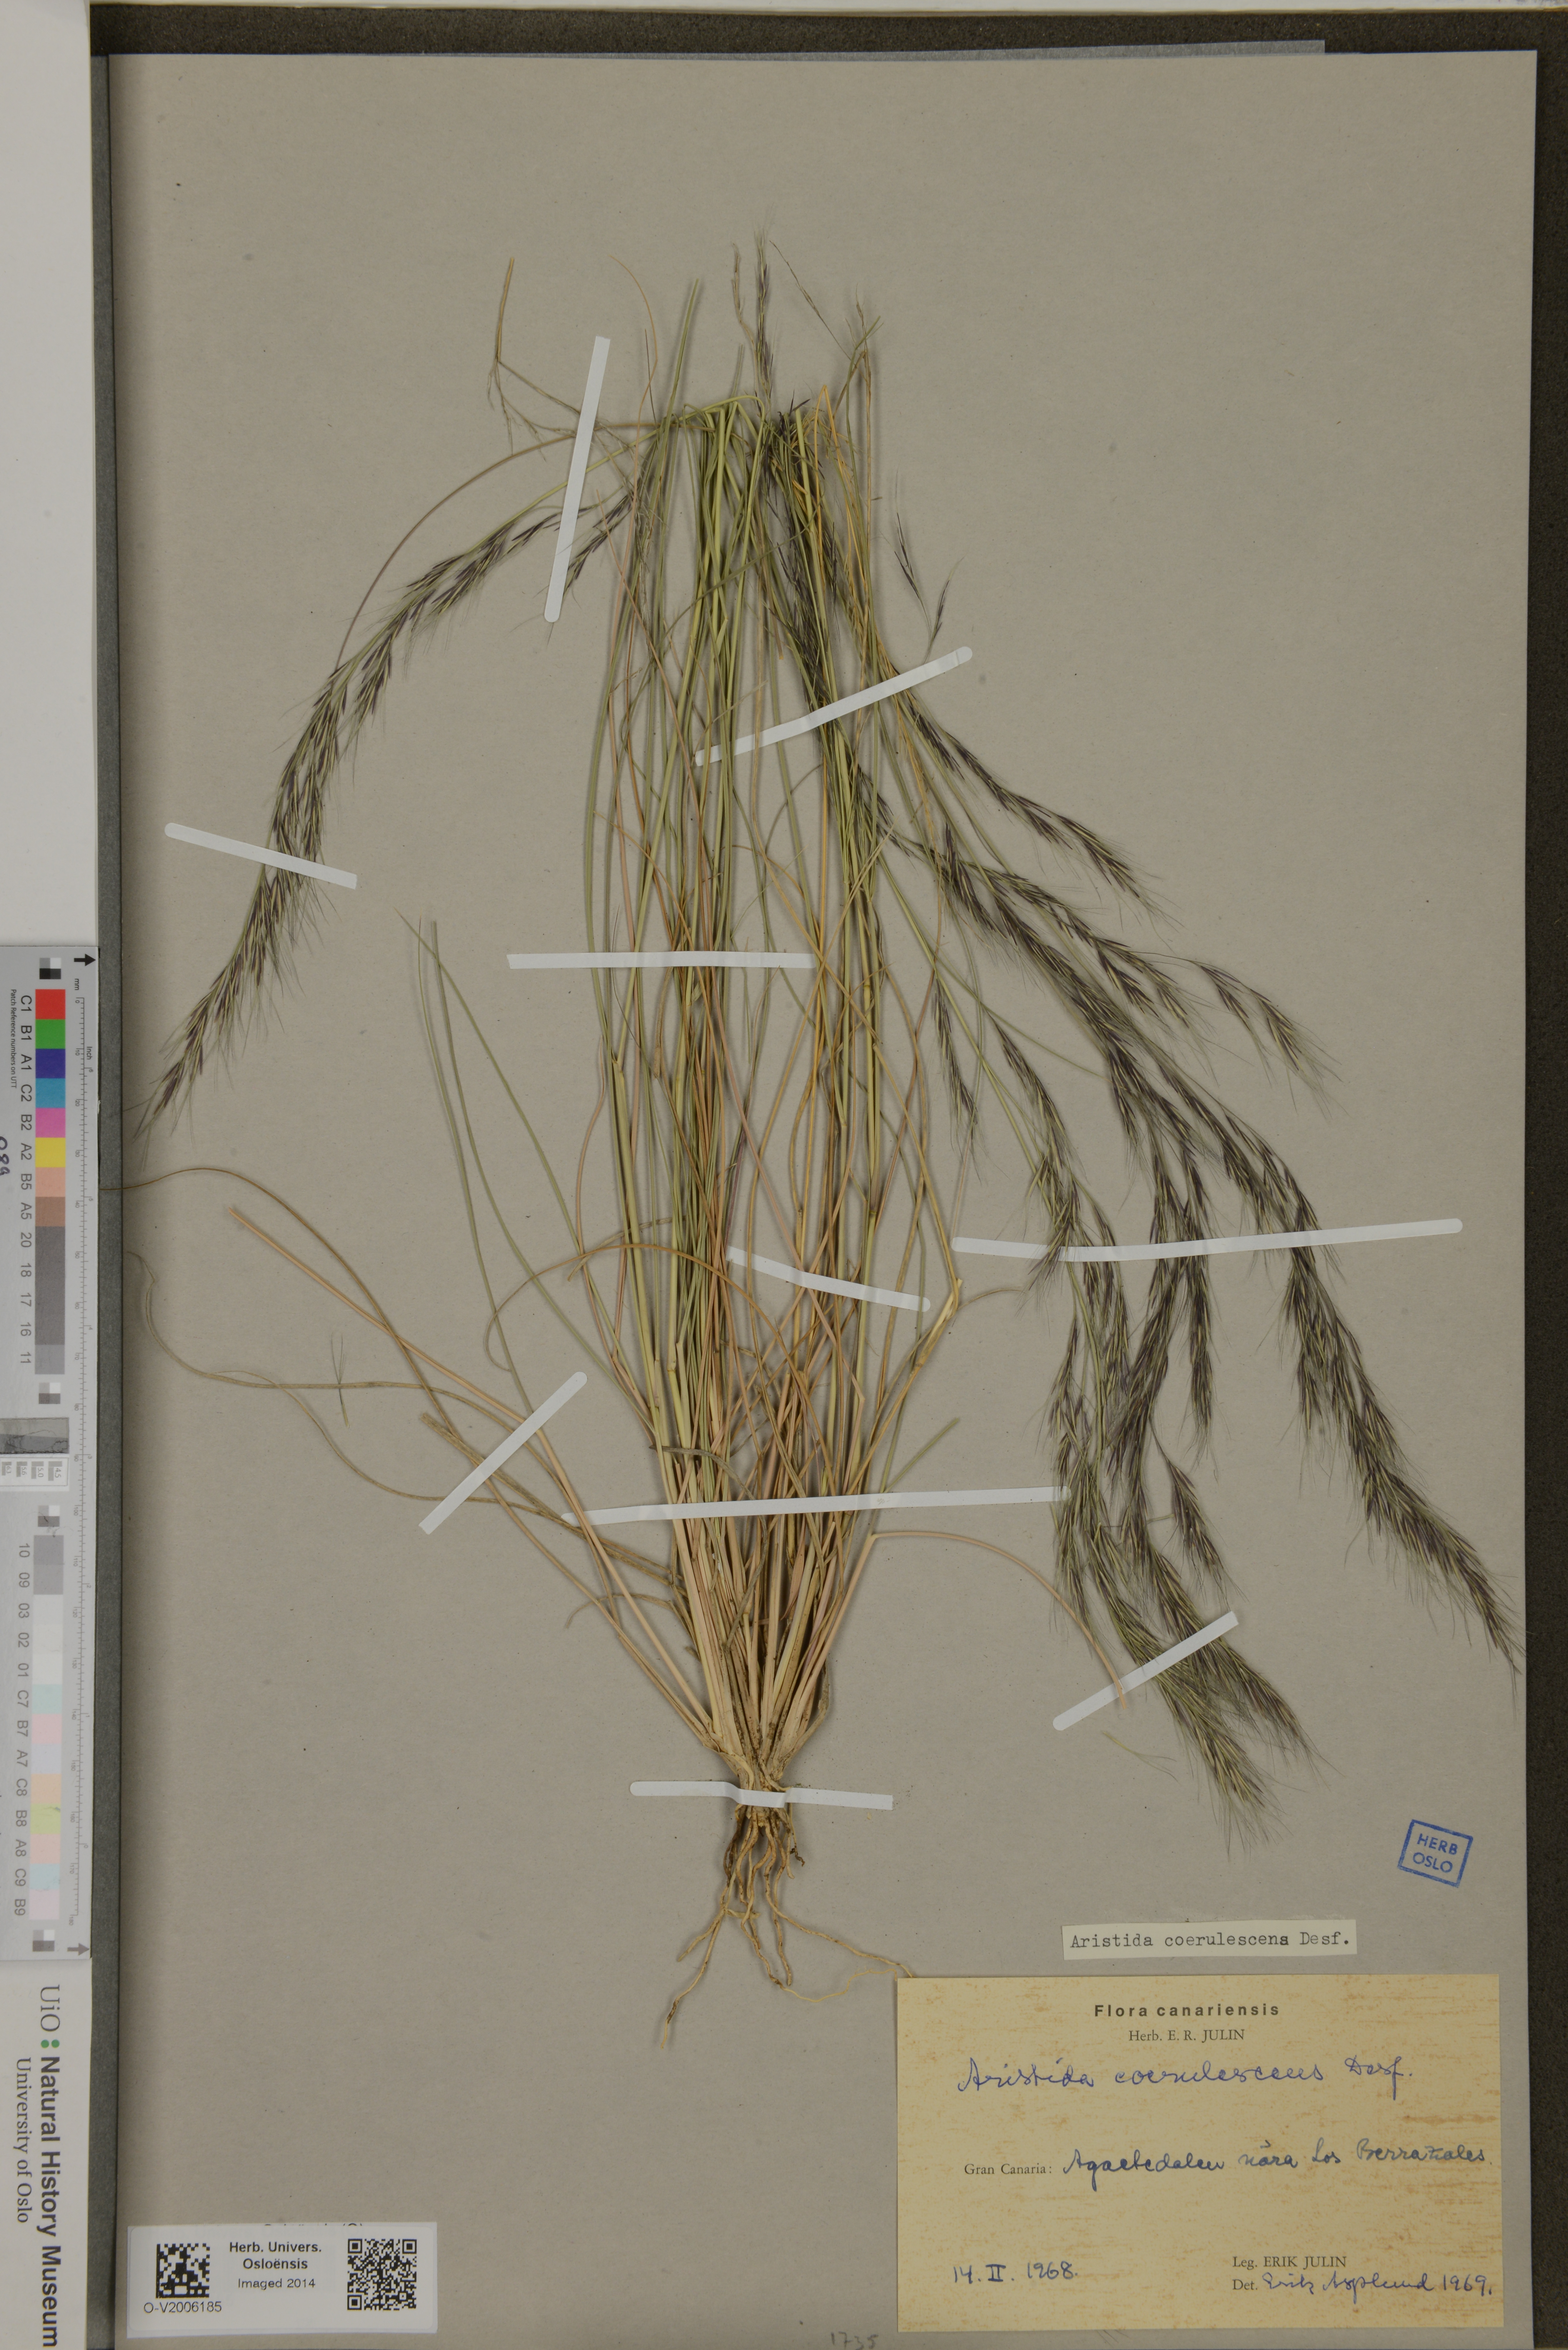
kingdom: Plantae
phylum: Tracheophyta
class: Liliopsida
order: Poales
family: Poaceae
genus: Aristida
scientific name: Aristida adscensionis
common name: Sixweeks threeawn
